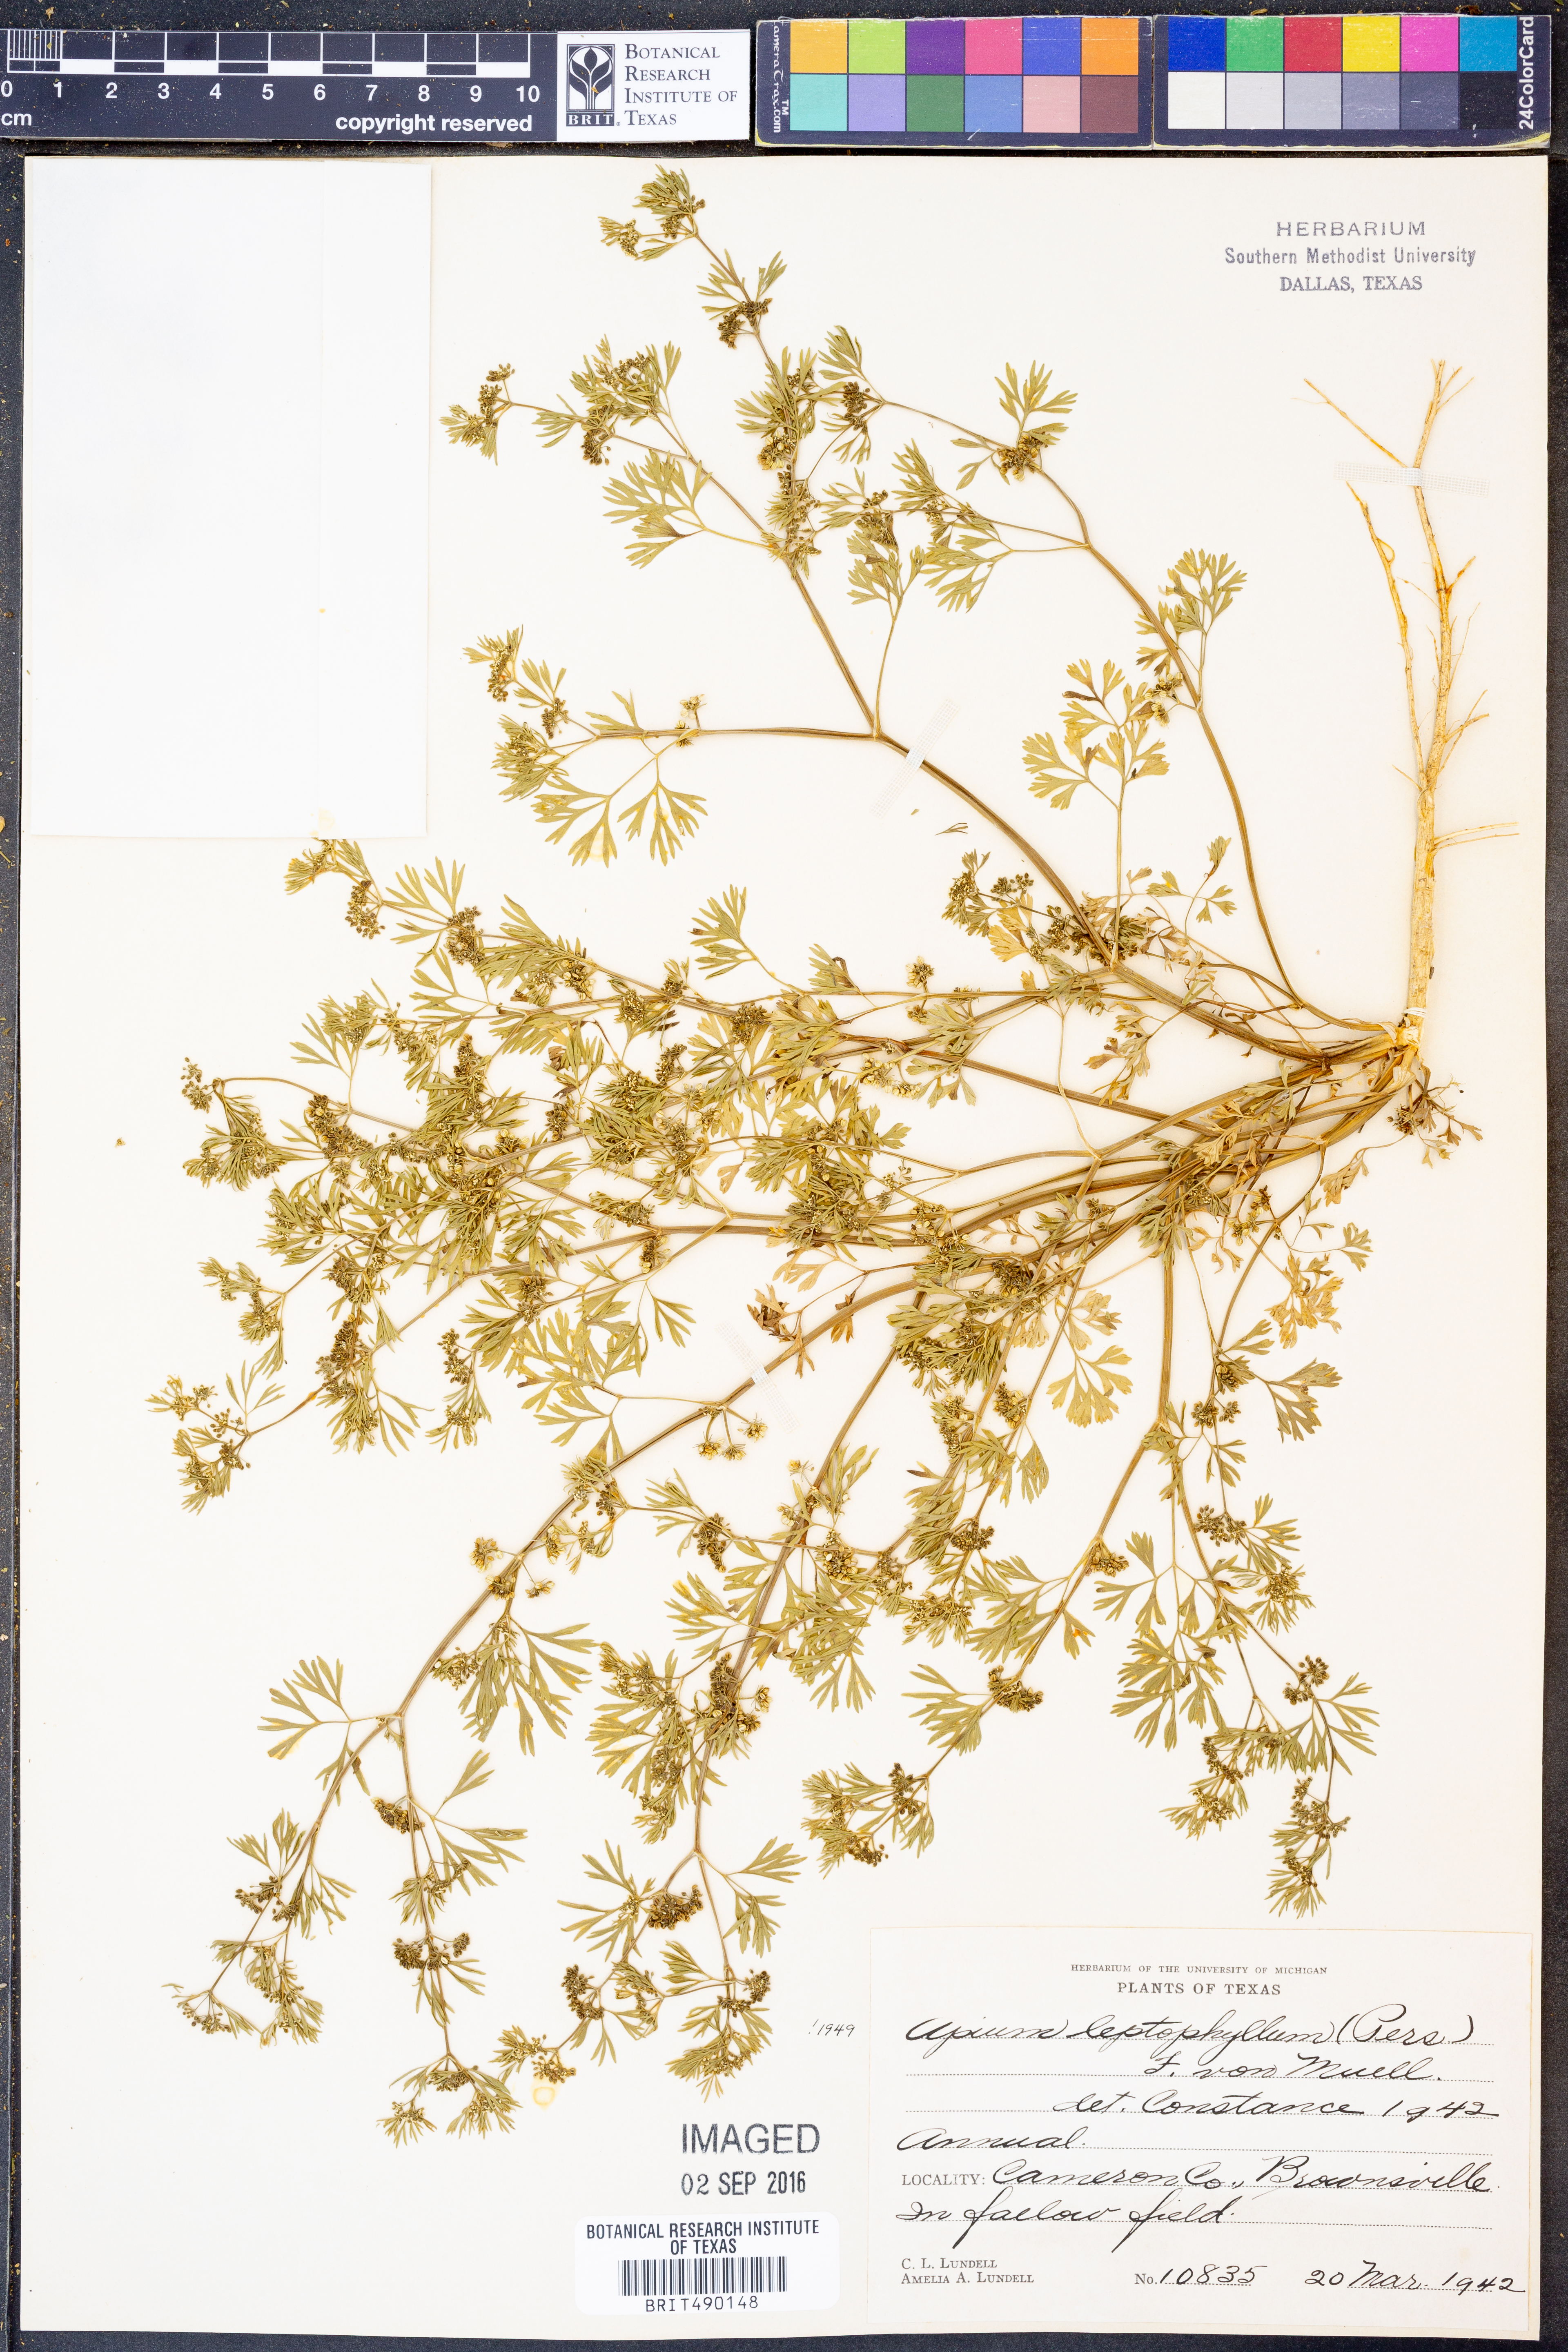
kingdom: Plantae
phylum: Tracheophyta
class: Magnoliopsida
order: Apiales
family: Apiaceae
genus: Cyclospermum
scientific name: Cyclospermum leptophyllum
